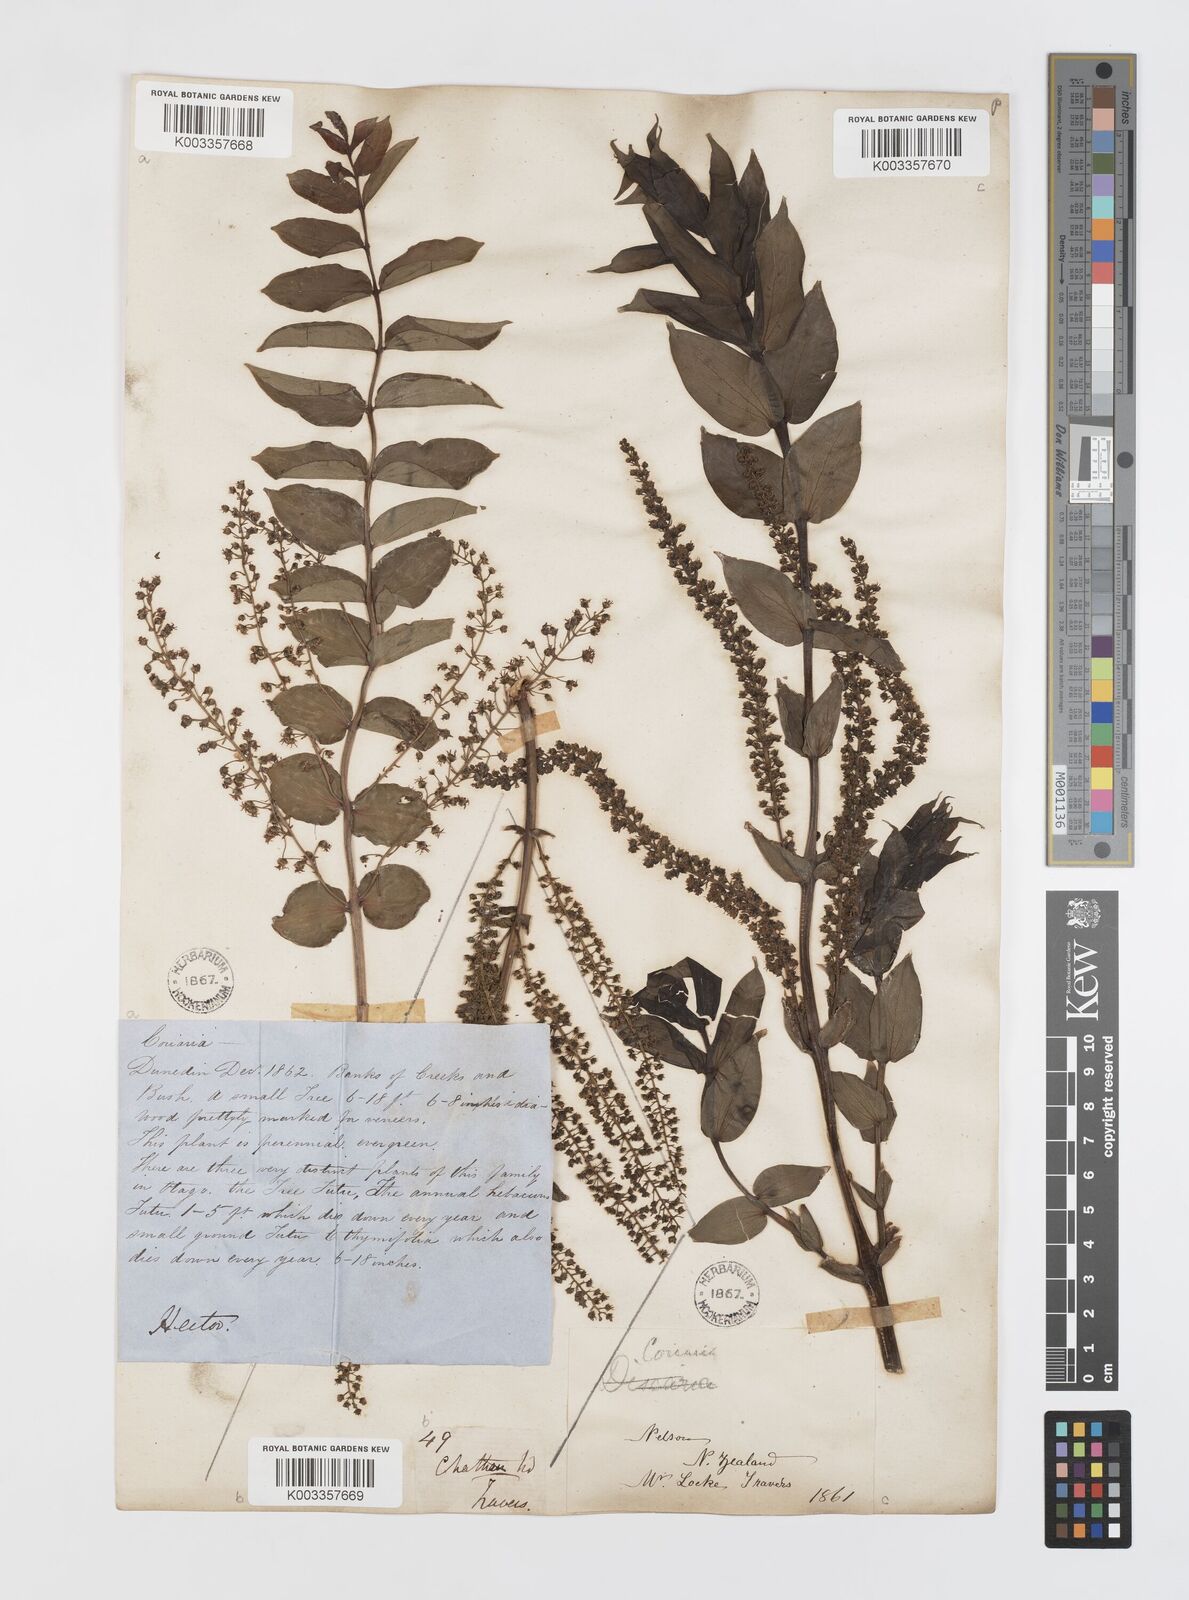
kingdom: Plantae
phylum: Tracheophyta
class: Magnoliopsida
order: Cucurbitales
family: Coriariaceae
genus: Coriaria
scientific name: Coriaria ruscifolia
